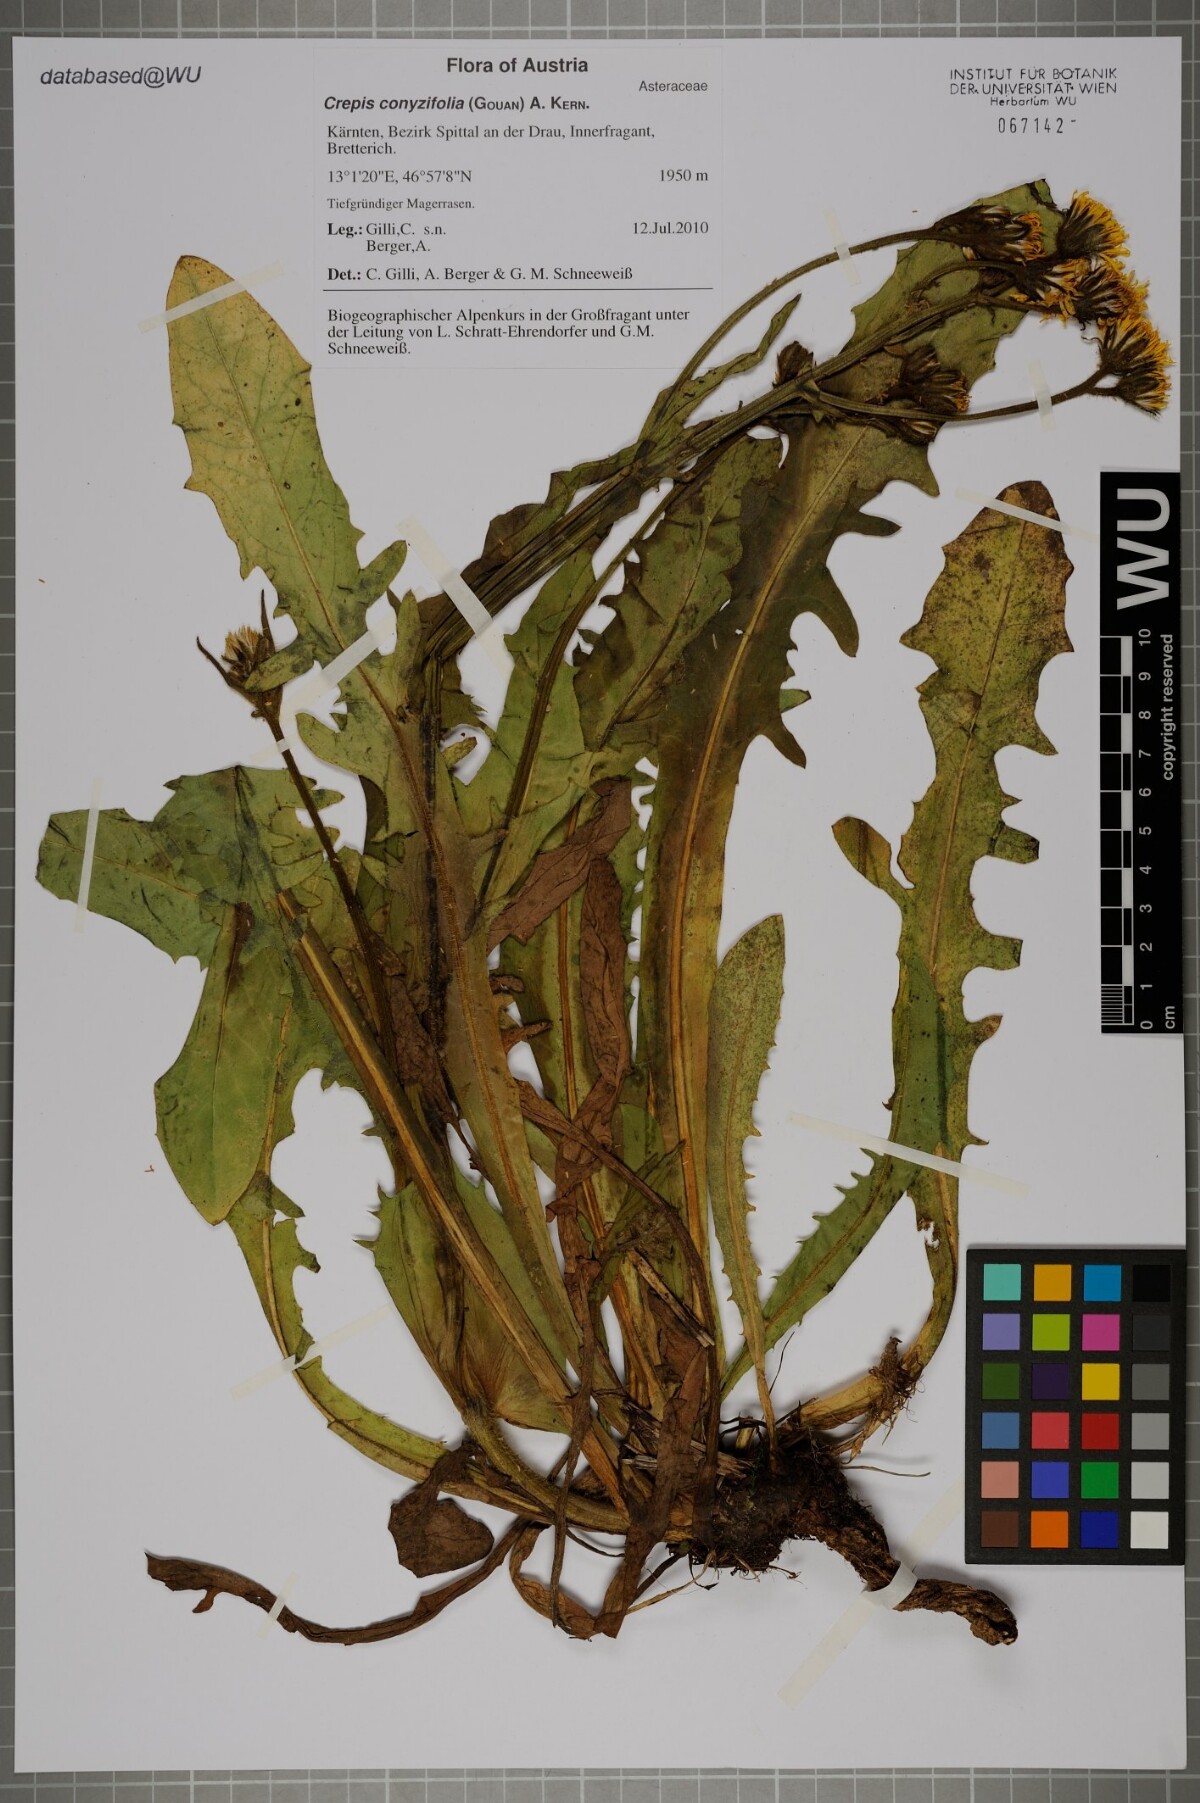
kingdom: Plantae
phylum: Tracheophyta
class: Magnoliopsida
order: Asterales
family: Asteraceae
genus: Crepis
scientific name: Crepis blattarioides
